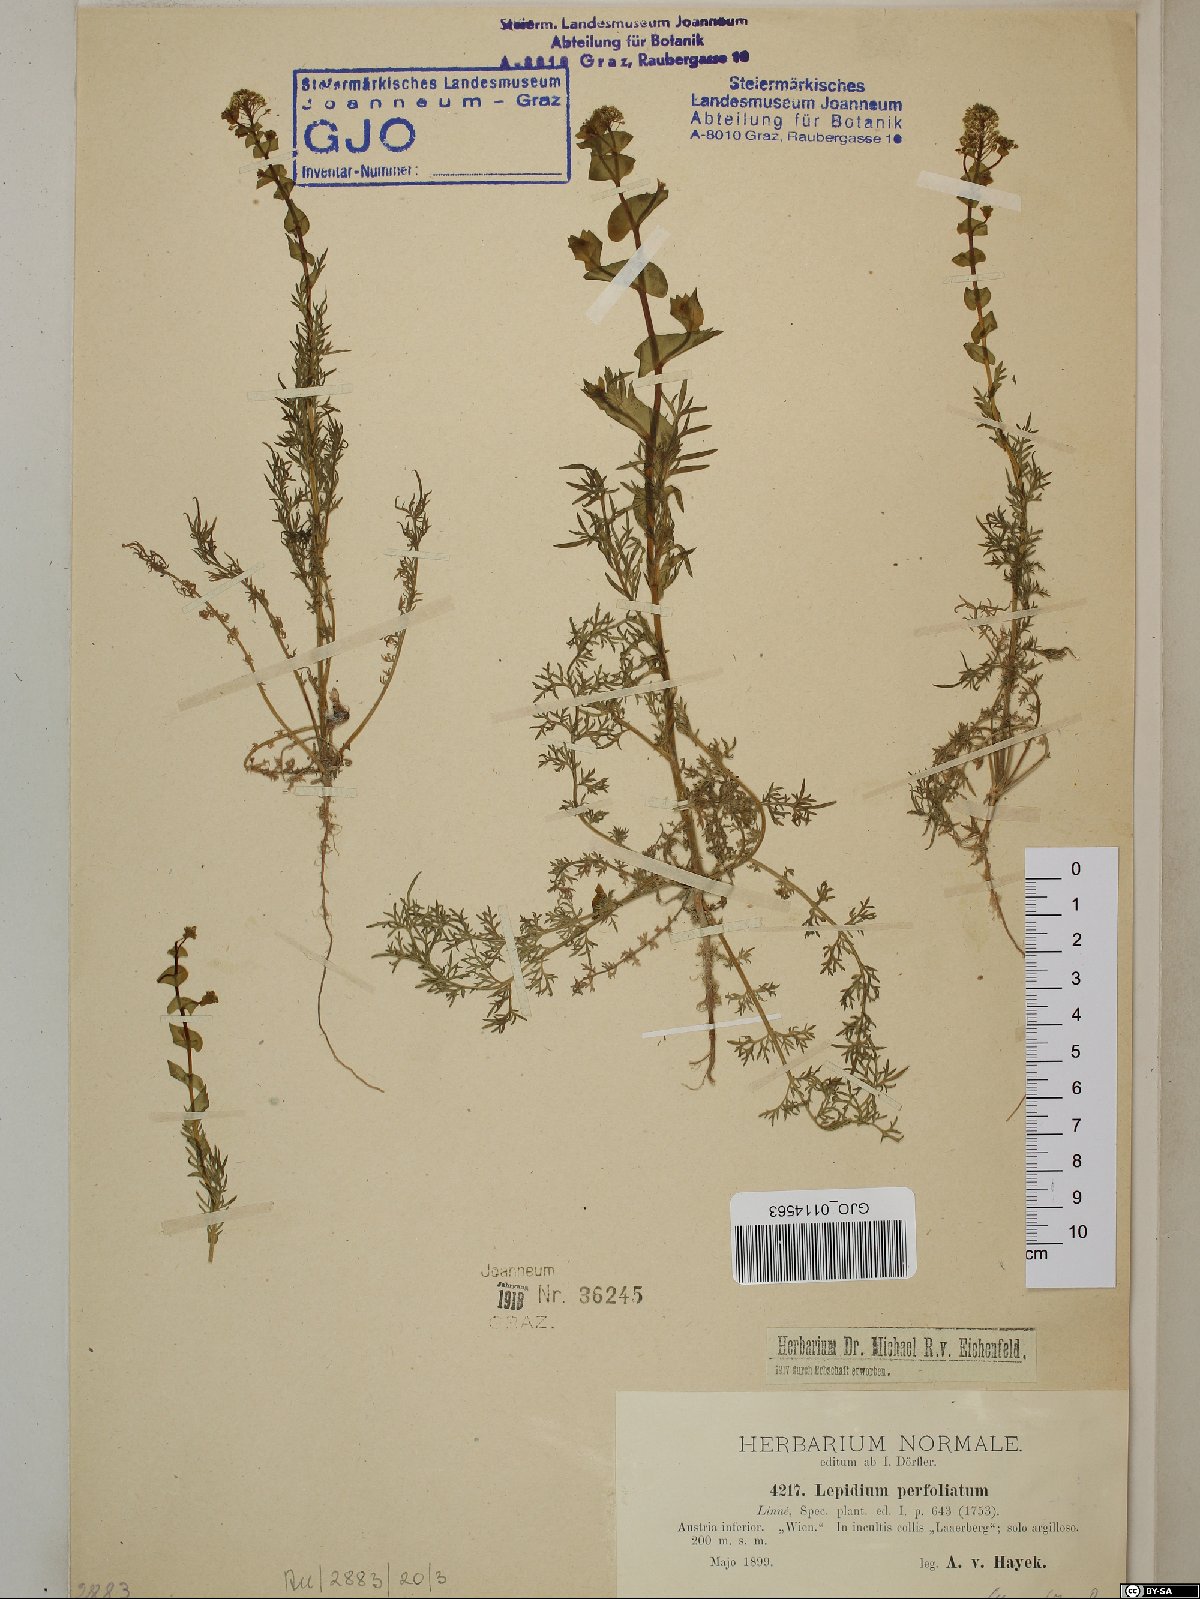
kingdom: Plantae
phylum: Tracheophyta
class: Magnoliopsida
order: Brassicales
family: Brassicaceae
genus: Lepidium
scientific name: Lepidium perfoliatum
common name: Perfoliate pepperwort
